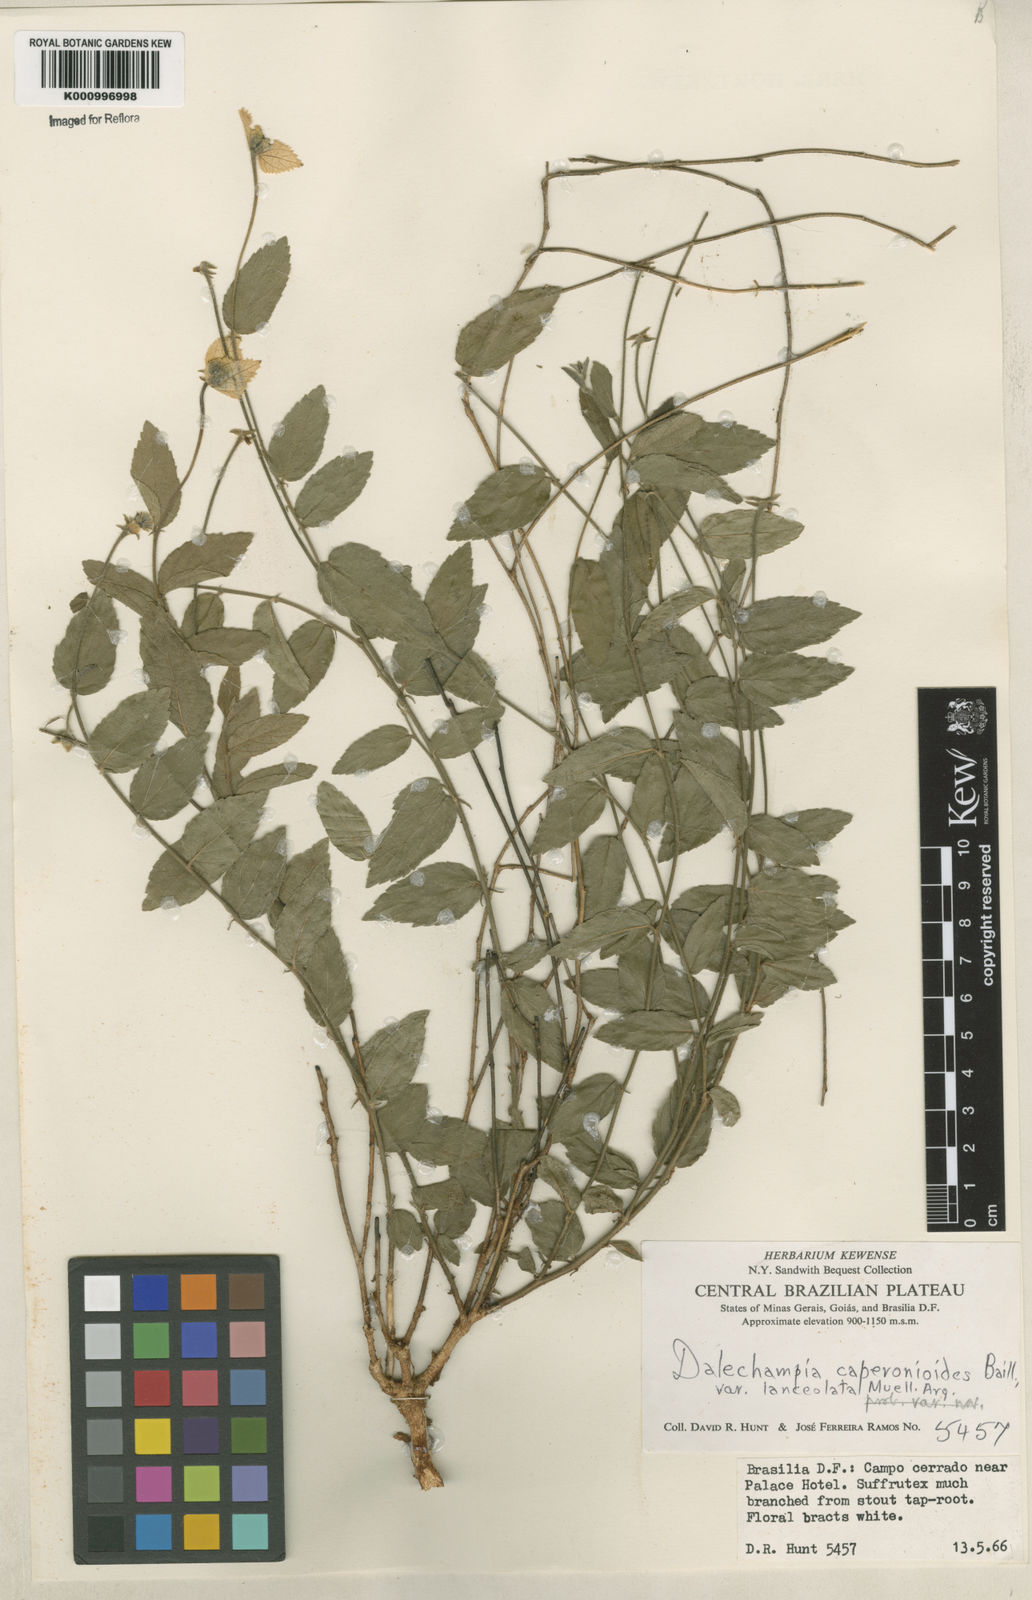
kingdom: Plantae
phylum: Tracheophyta
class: Magnoliopsida
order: Malpighiales
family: Euphorbiaceae
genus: Dalechampia
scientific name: Dalechampia caperonioides
